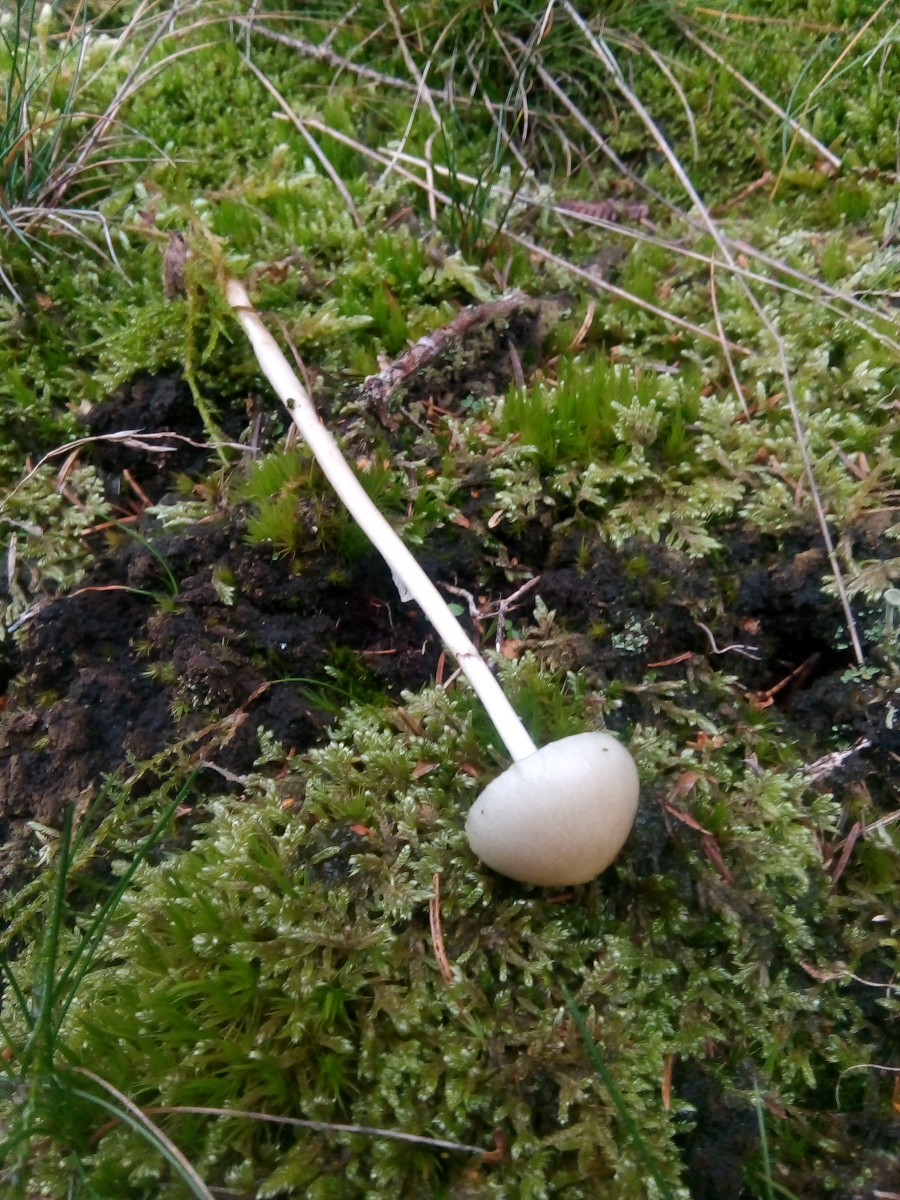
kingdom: Fungi
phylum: Basidiomycota
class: Agaricomycetes
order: Agaricales
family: Strophariaceae
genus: Protostropharia
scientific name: Protostropharia semiglobata
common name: halvkugleformet bredblad
